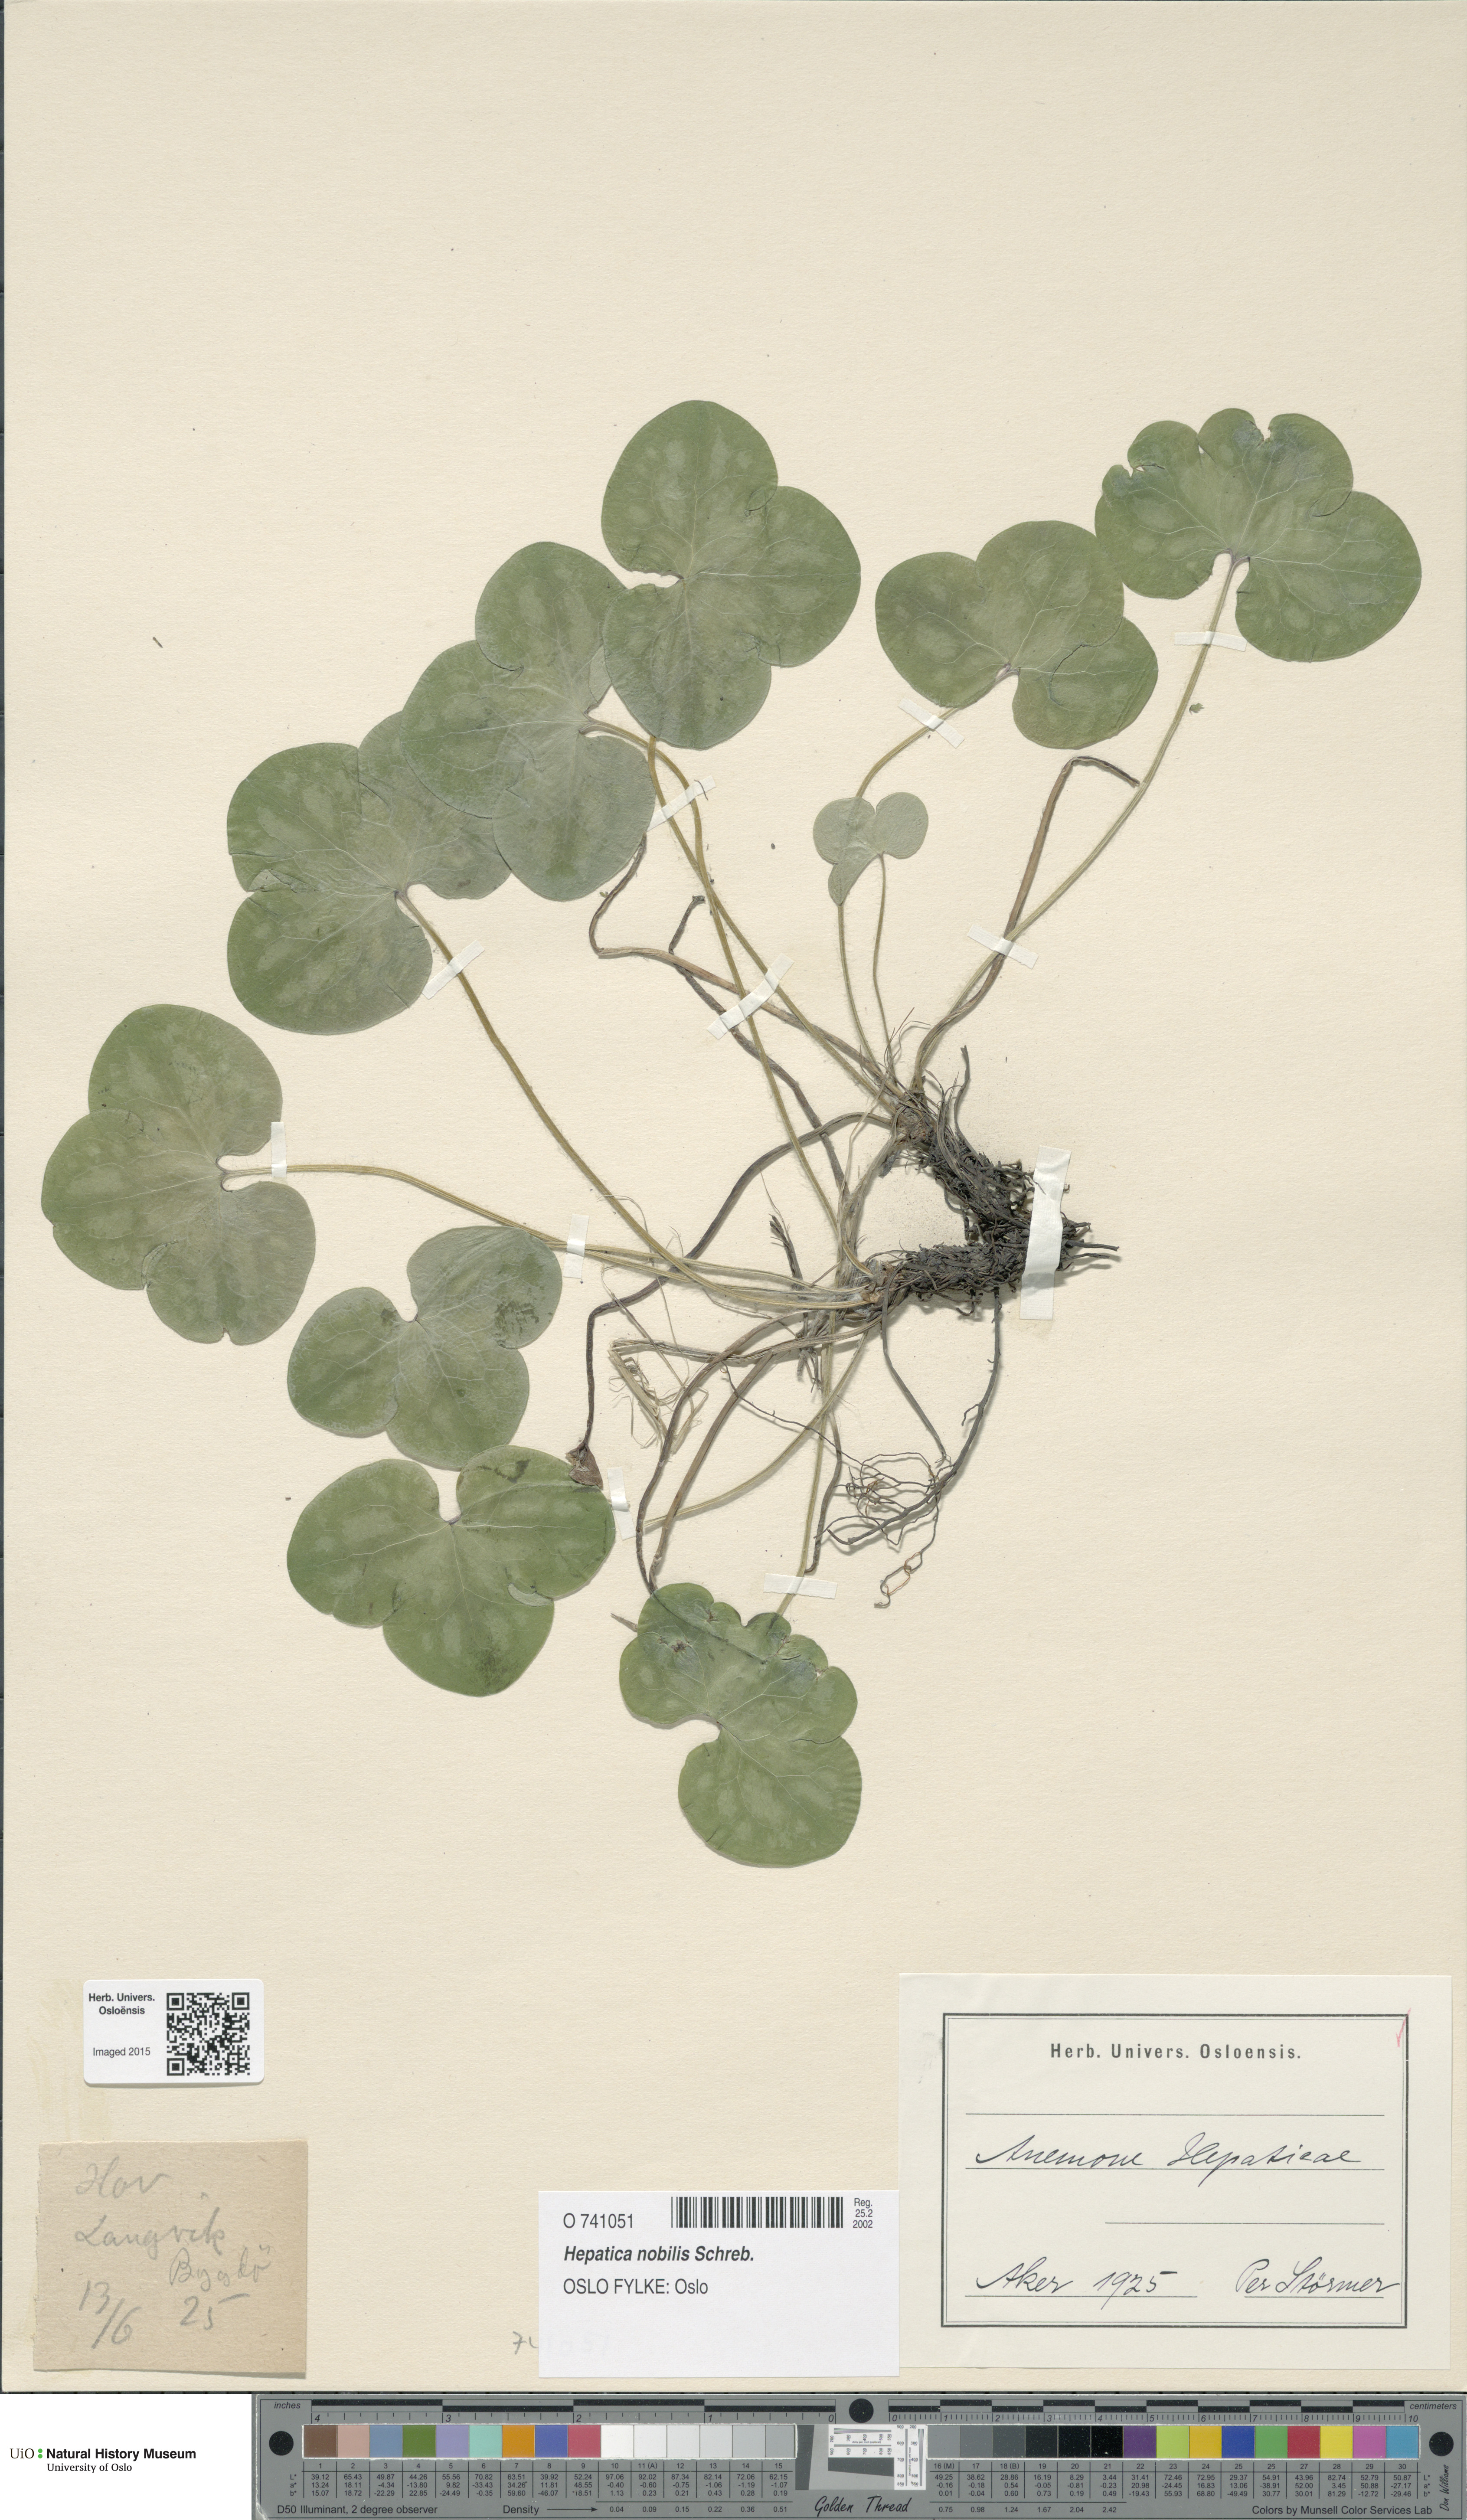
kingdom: Plantae
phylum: Tracheophyta
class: Magnoliopsida
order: Ranunculales
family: Ranunculaceae
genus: Hepatica
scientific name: Hepatica nobilis
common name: Liverleaf
